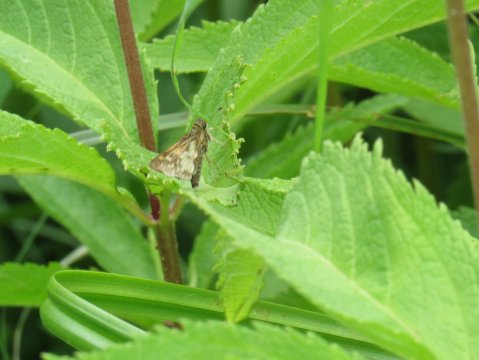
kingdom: Animalia
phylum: Arthropoda
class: Insecta
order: Lepidoptera
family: Hesperiidae
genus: Polites
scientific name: Polites coras
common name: Peck's Skipper
